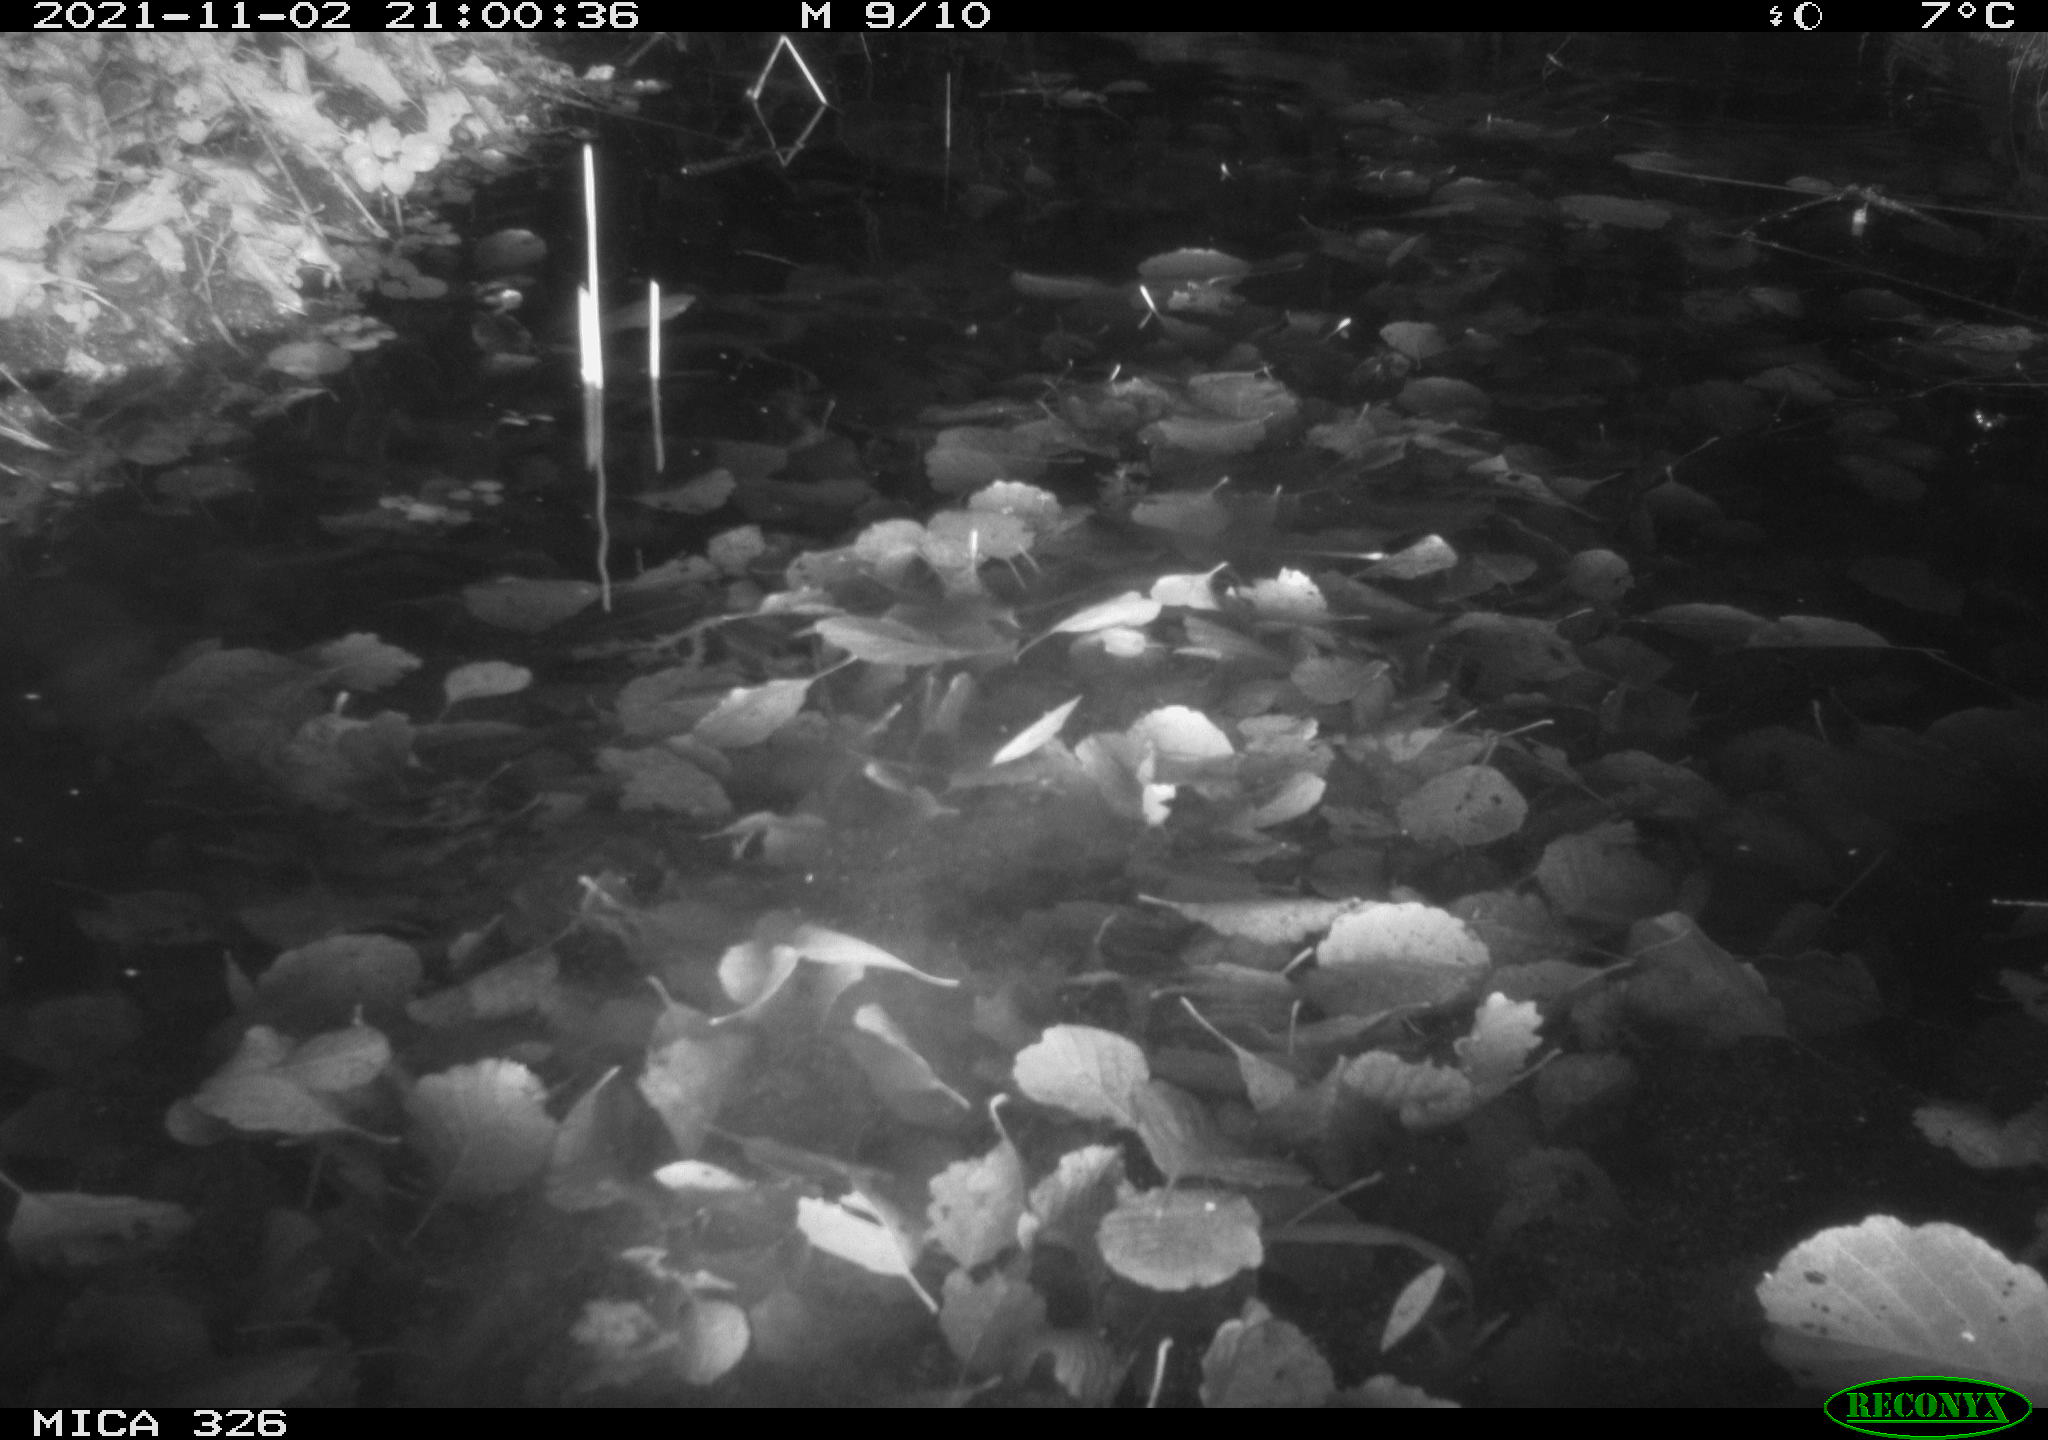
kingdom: Animalia
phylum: Chordata
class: Mammalia
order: Rodentia
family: Myocastoridae
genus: Myocastor
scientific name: Myocastor coypus
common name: Coypu
